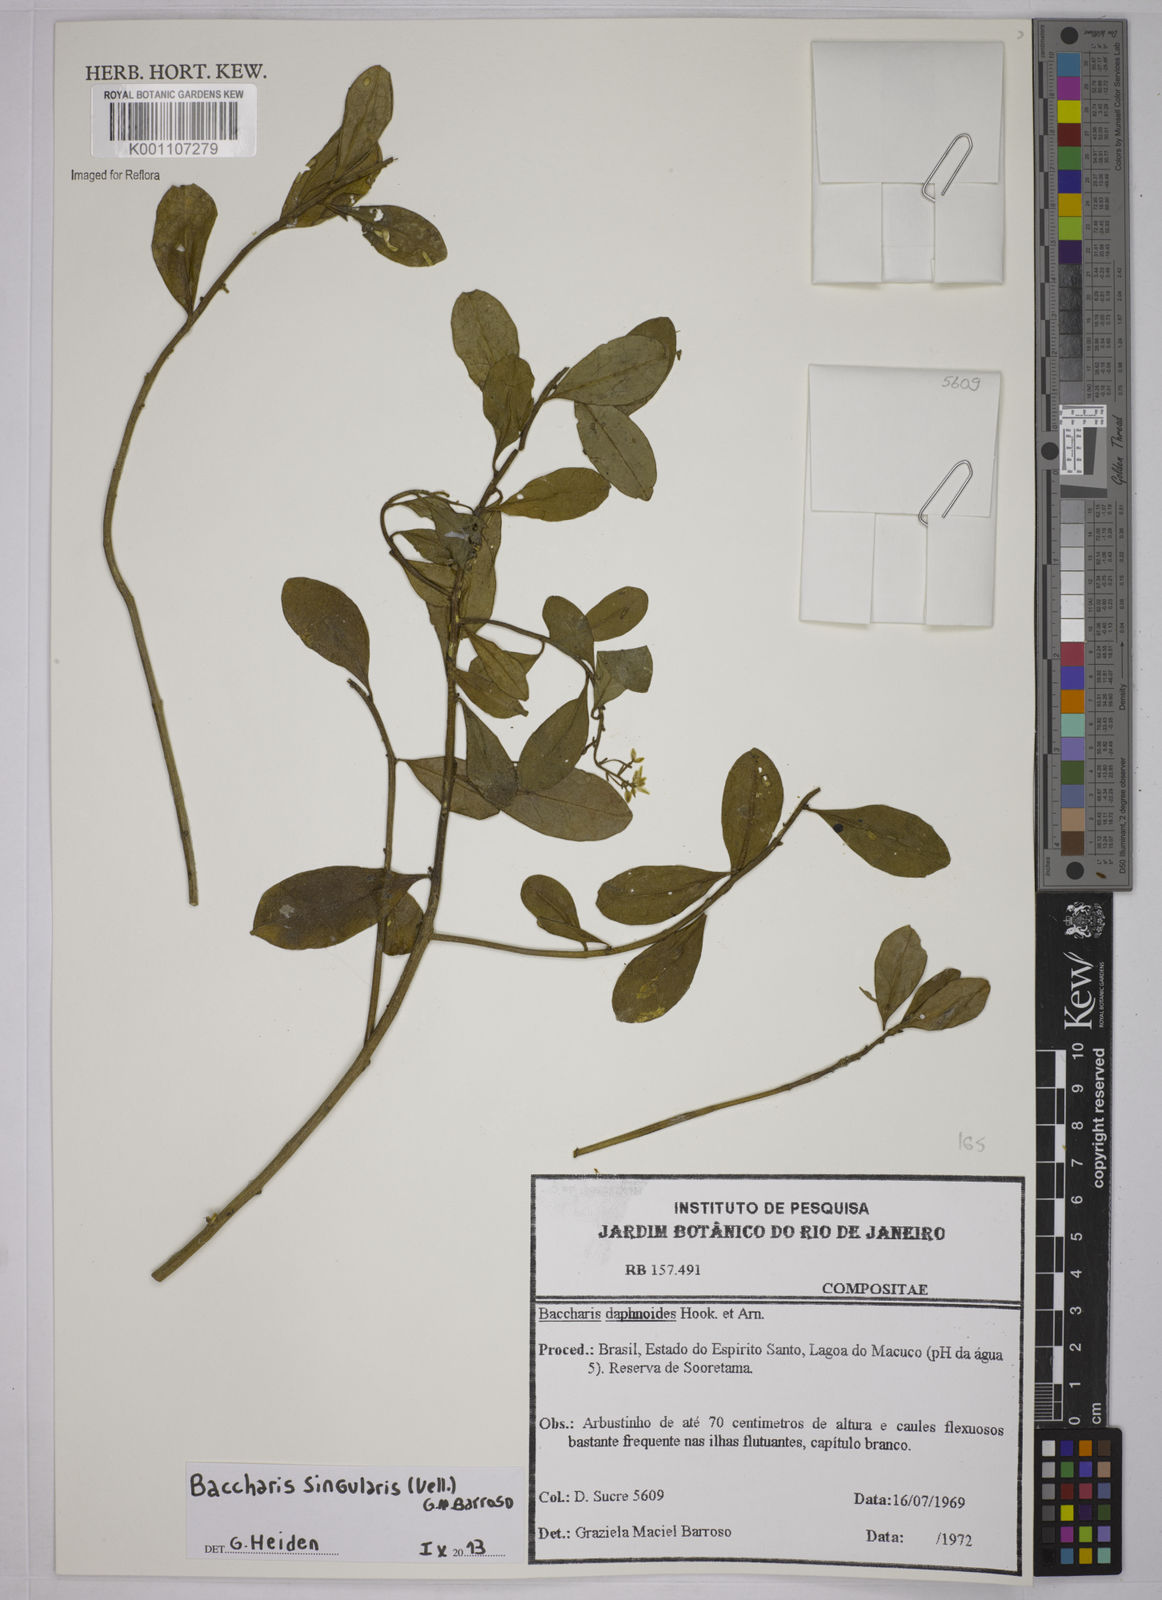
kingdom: Plantae
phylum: Tracheophyta
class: Magnoliopsida
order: Asterales
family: Asteraceae
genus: Baccharis
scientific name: Baccharis singularis
